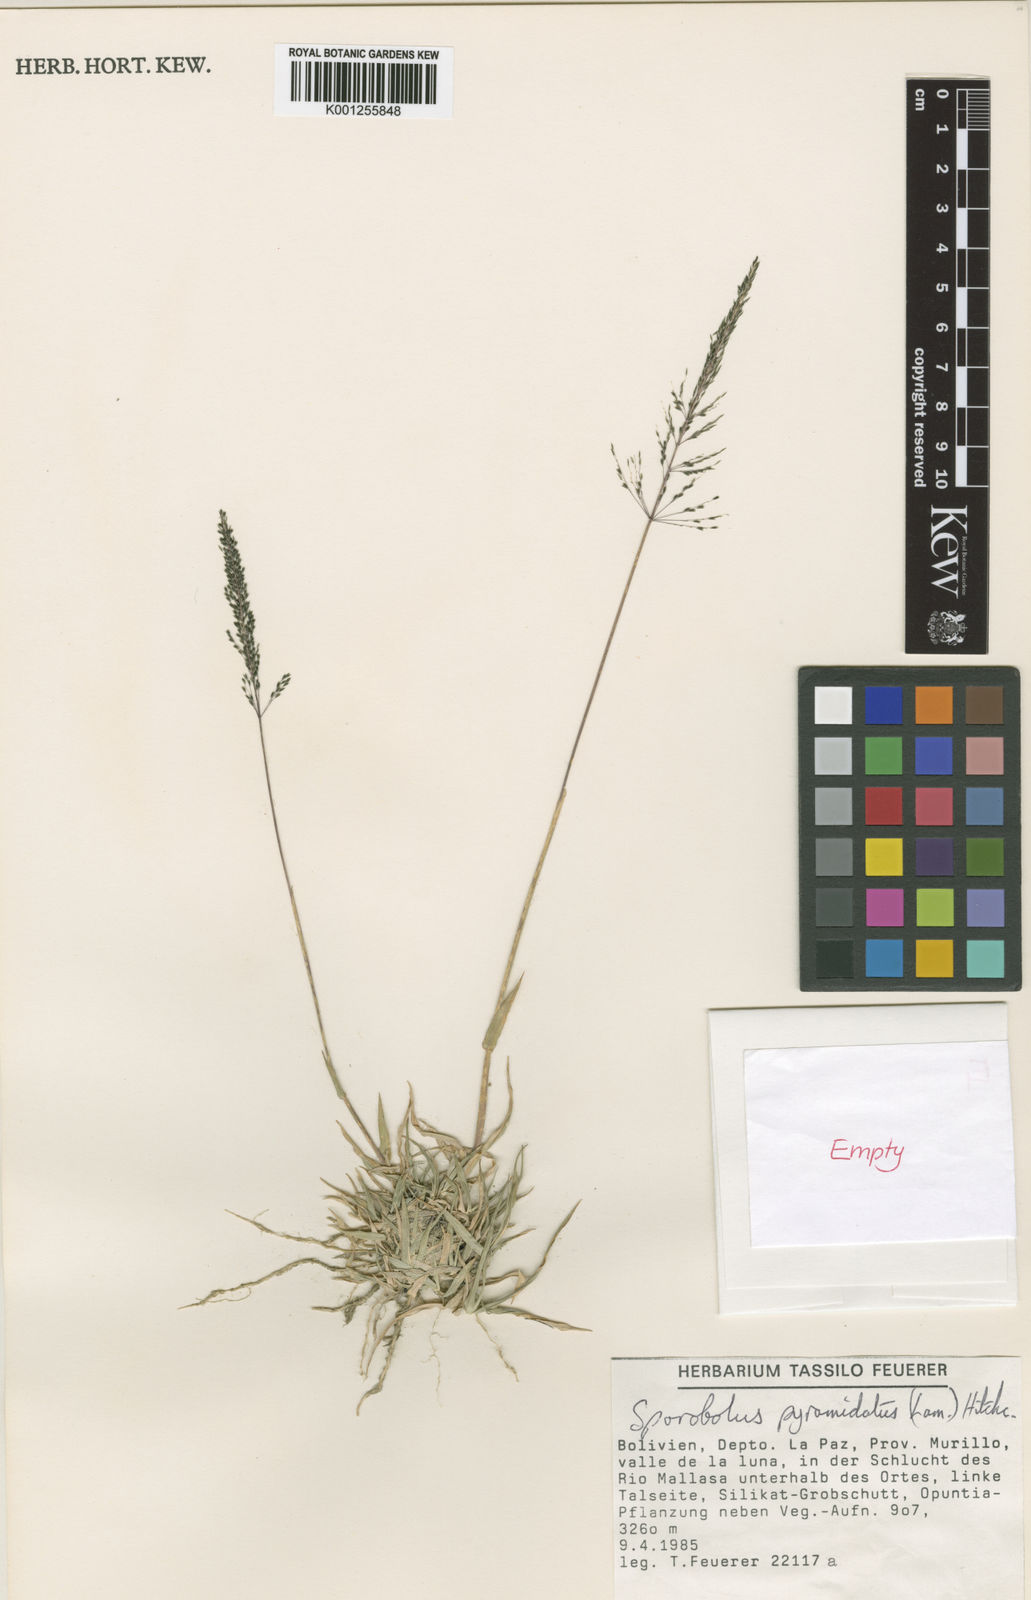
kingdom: Plantae
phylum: Tracheophyta
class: Liliopsida
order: Poales
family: Poaceae
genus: Sporobolus
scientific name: Sporobolus pyramidatus
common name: Whorled dropseed
